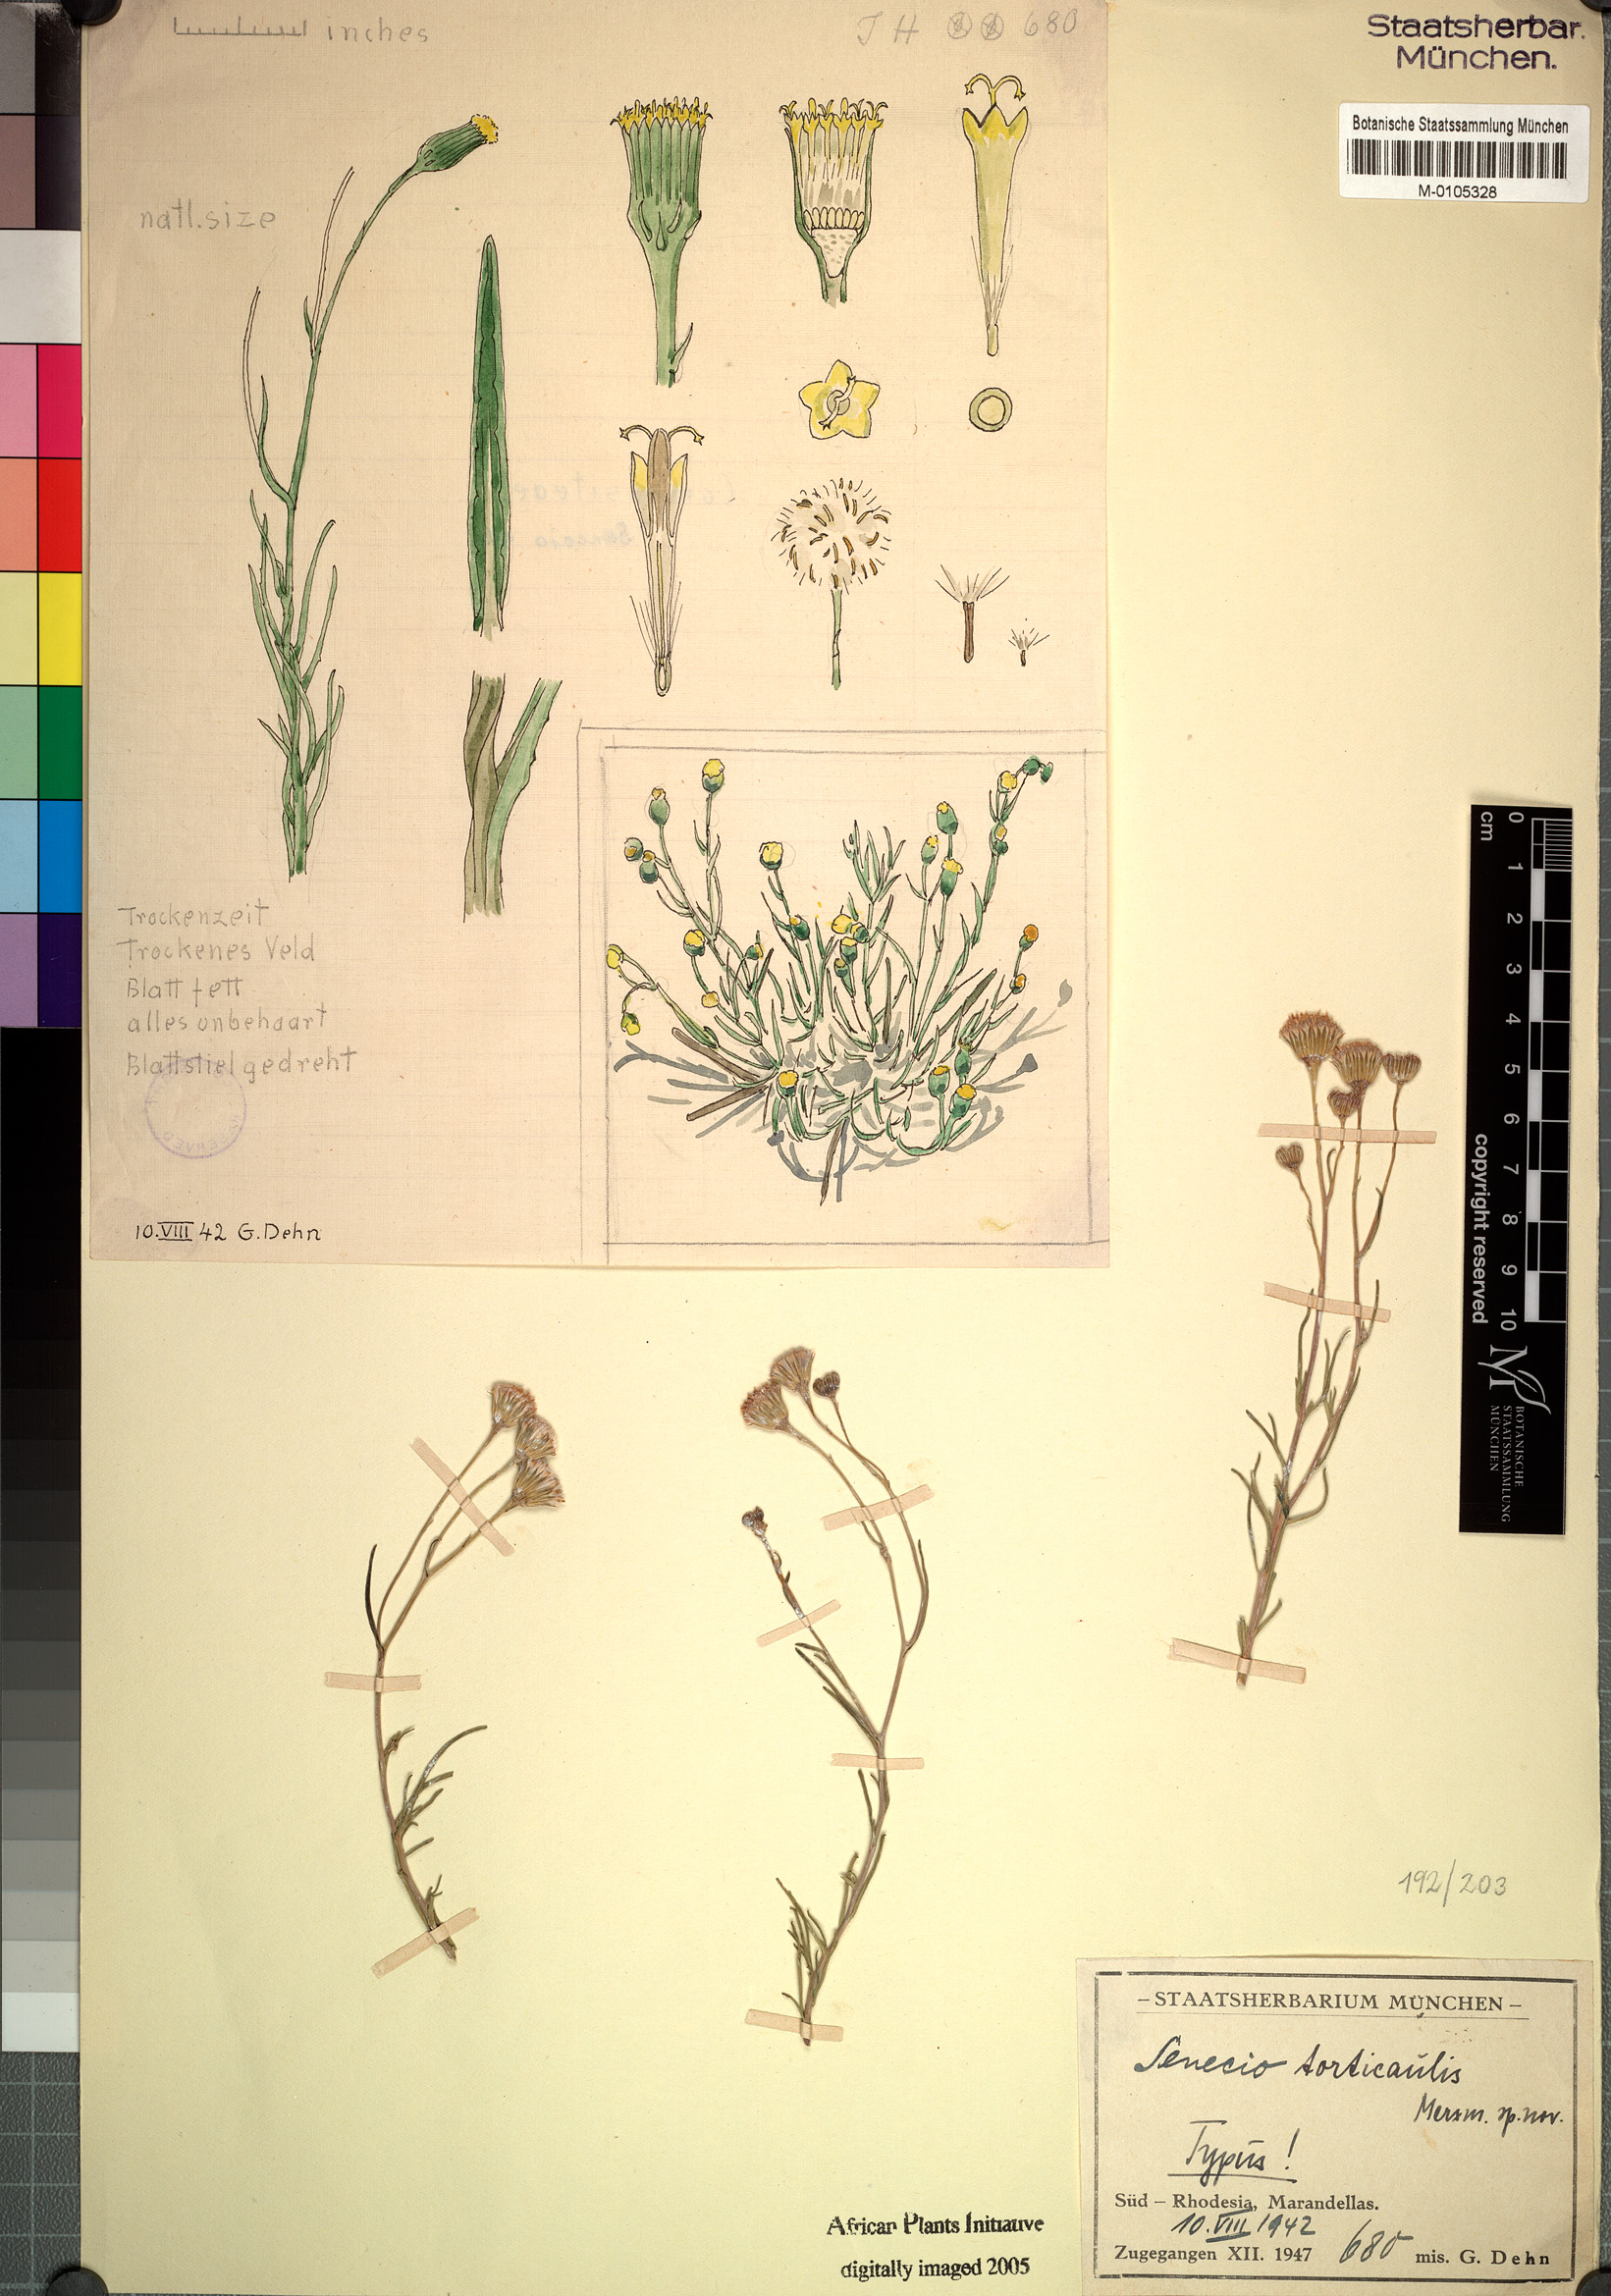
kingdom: Plantae
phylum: Tracheophyta
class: Magnoliopsida
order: Asterales
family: Asteraceae
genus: Senecio
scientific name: Senecio torticaulis
